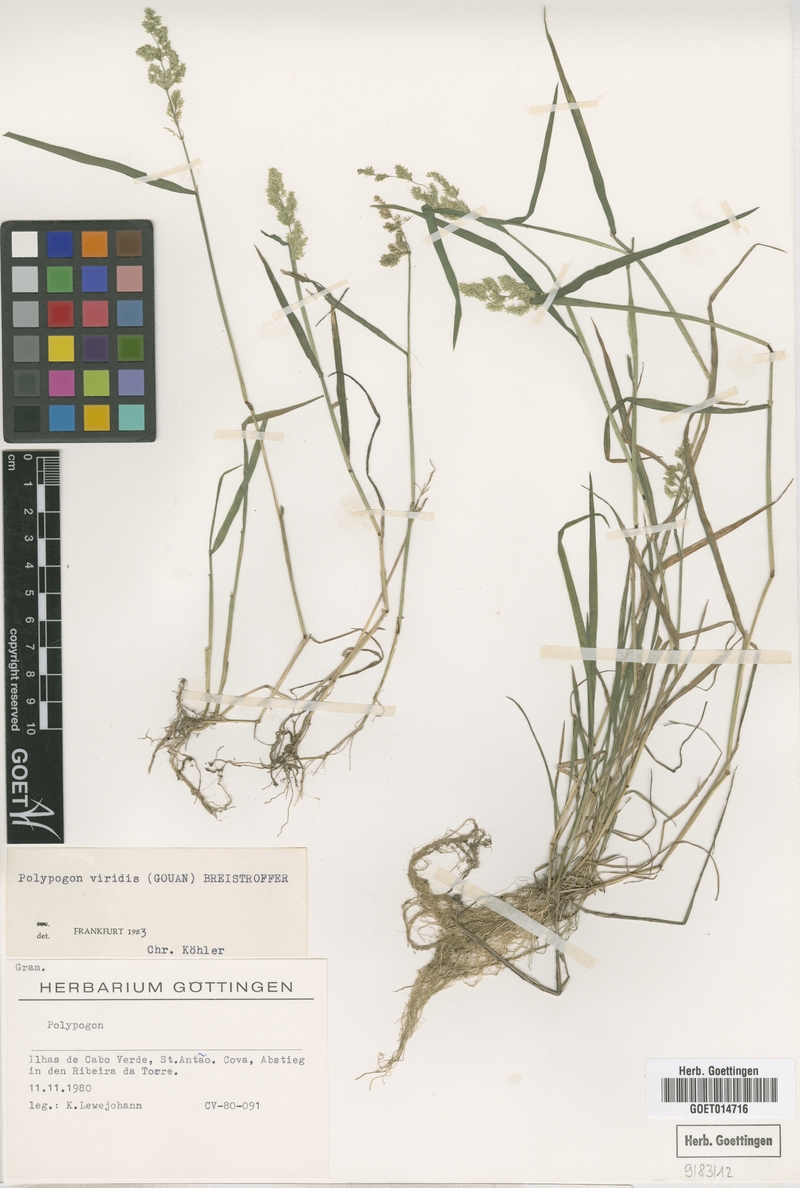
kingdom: Plantae
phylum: Tracheophyta
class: Liliopsida
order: Poales
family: Poaceae
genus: Polypogon
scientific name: Polypogon viridis
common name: Water bent
